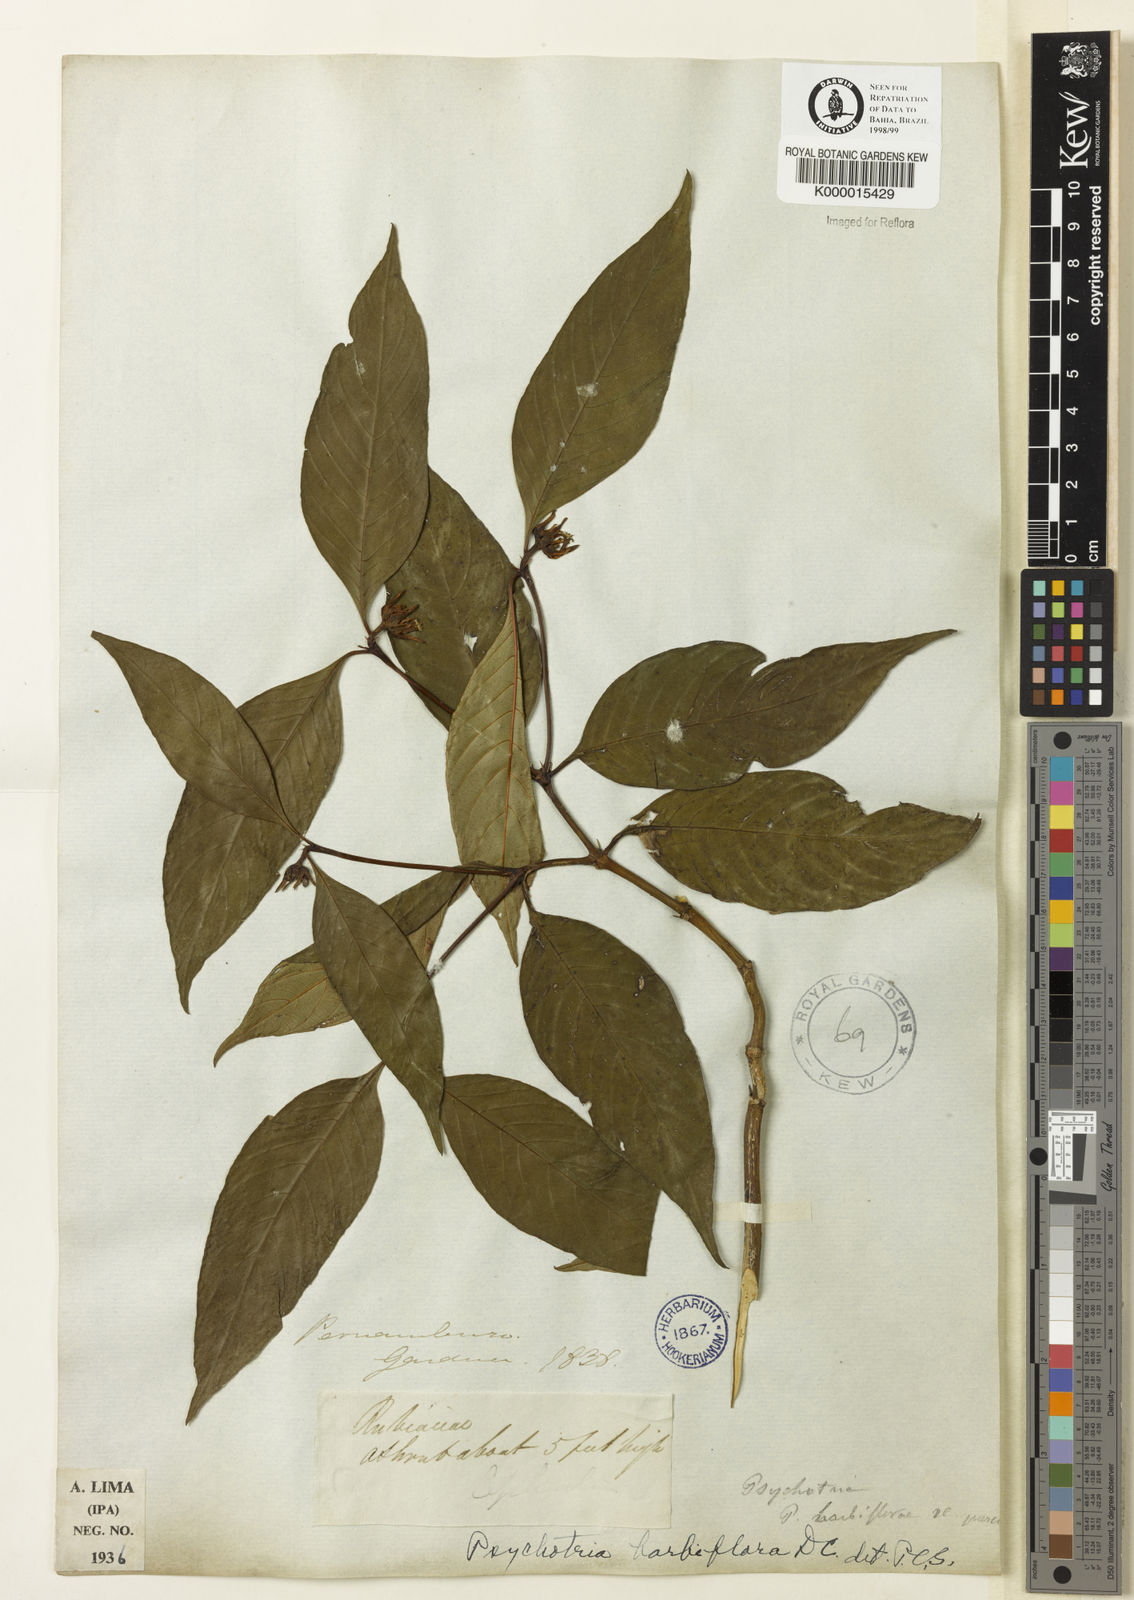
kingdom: Plantae
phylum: Tracheophyta
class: Magnoliopsida
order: Gentianales
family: Rubiaceae
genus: Palicourea
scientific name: Palicourea hoffmannseggiana
